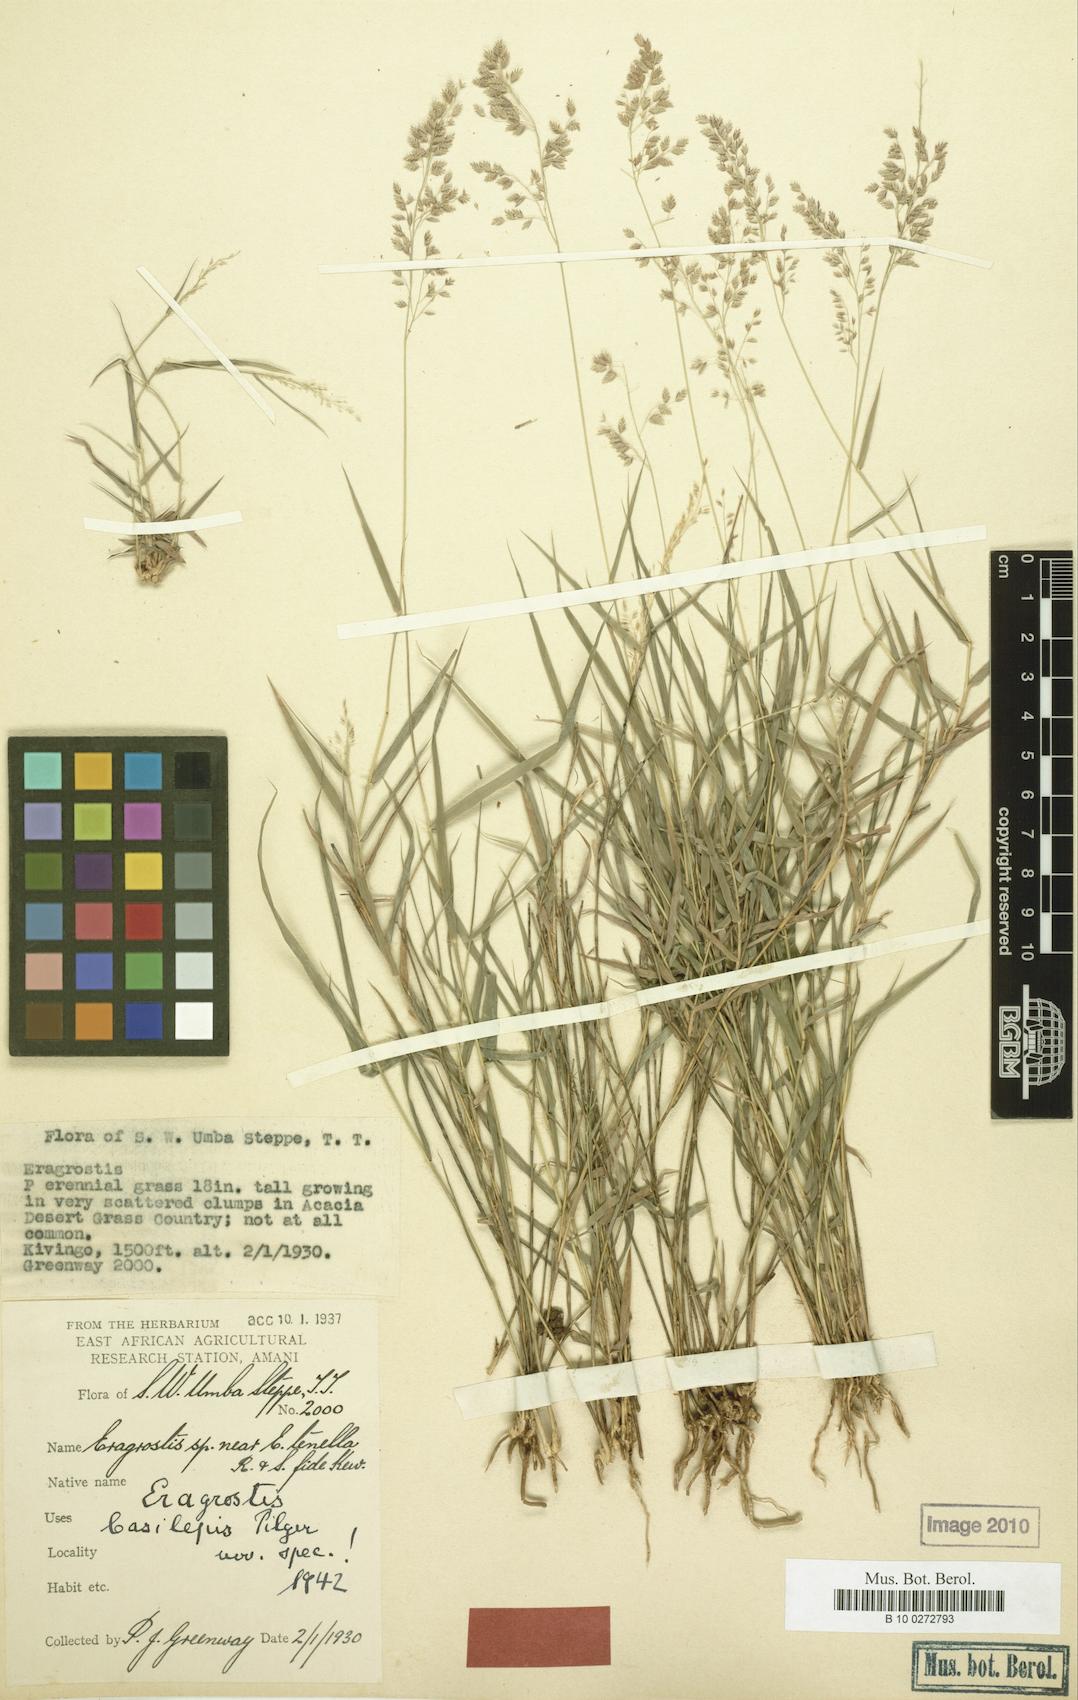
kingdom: Plantae
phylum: Tracheophyta
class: Liliopsida
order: Poales
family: Poaceae
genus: Eragrostis
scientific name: Eragrostis caespitosa
